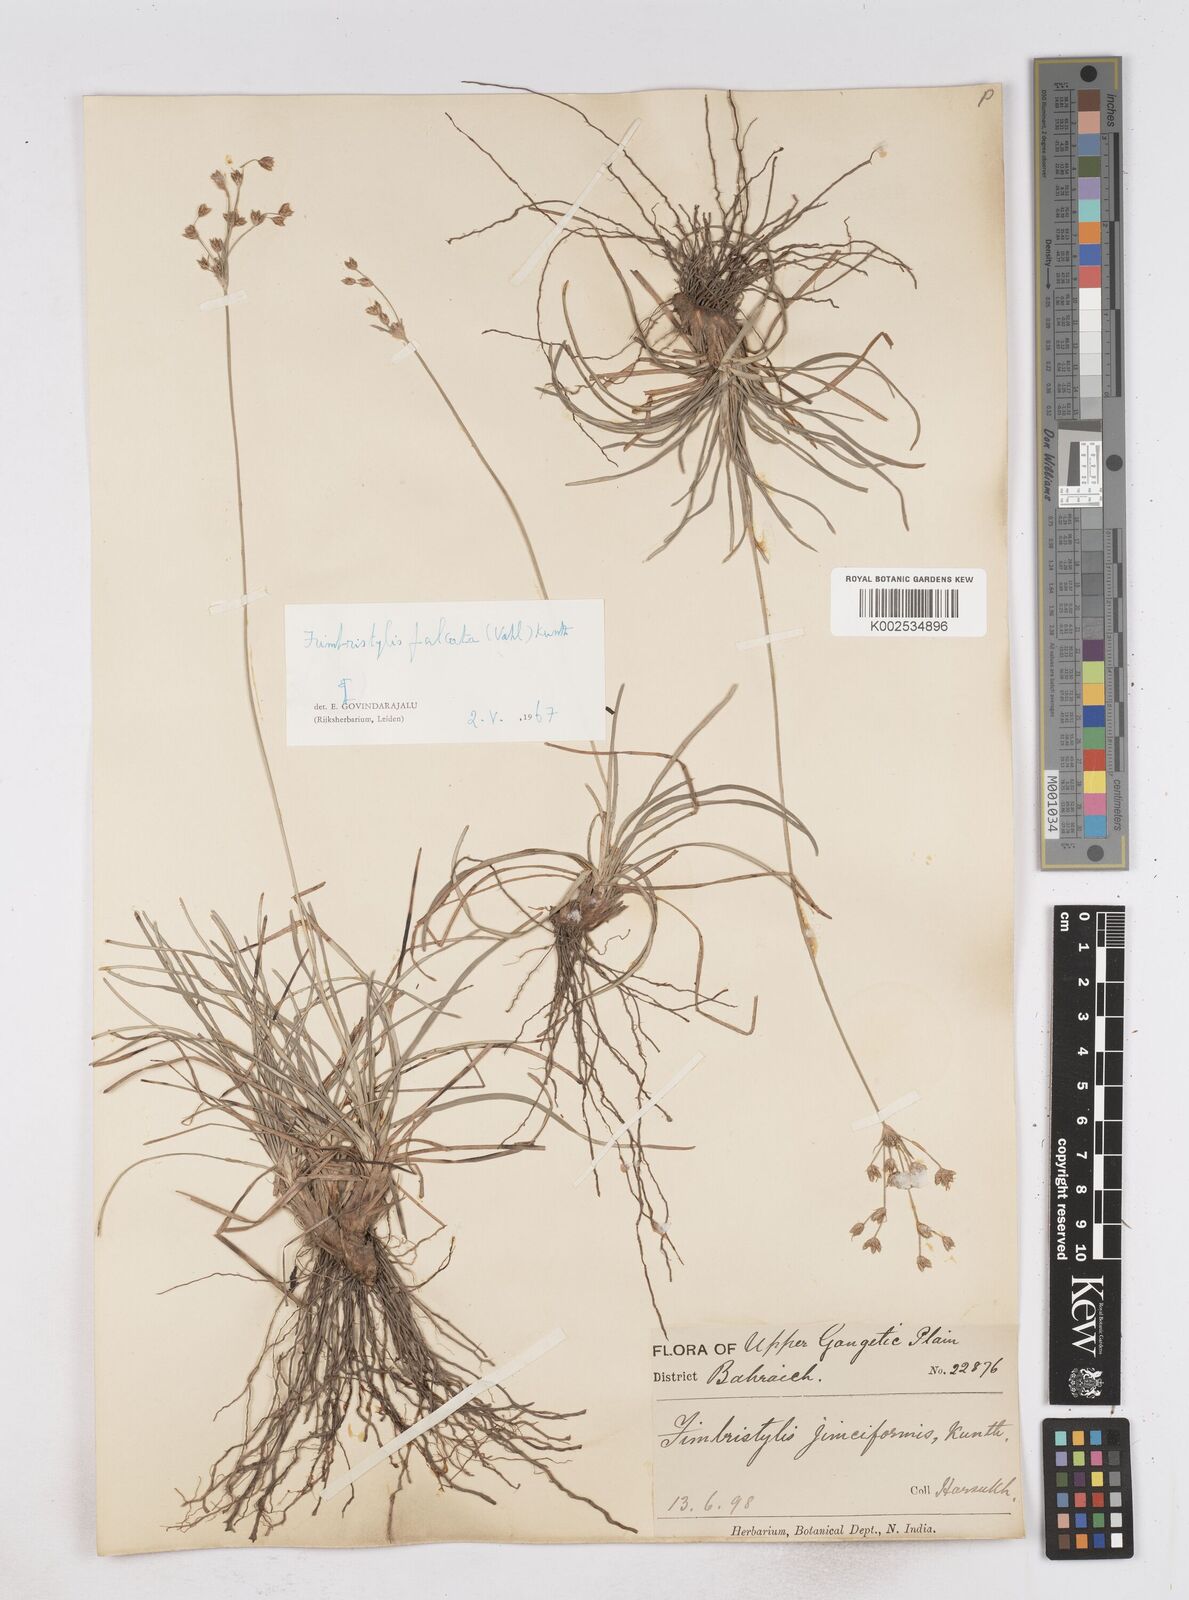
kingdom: Plantae
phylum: Tracheophyta
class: Liliopsida
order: Poales
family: Cyperaceae
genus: Fimbristylis
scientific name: Fimbristylis falcata
